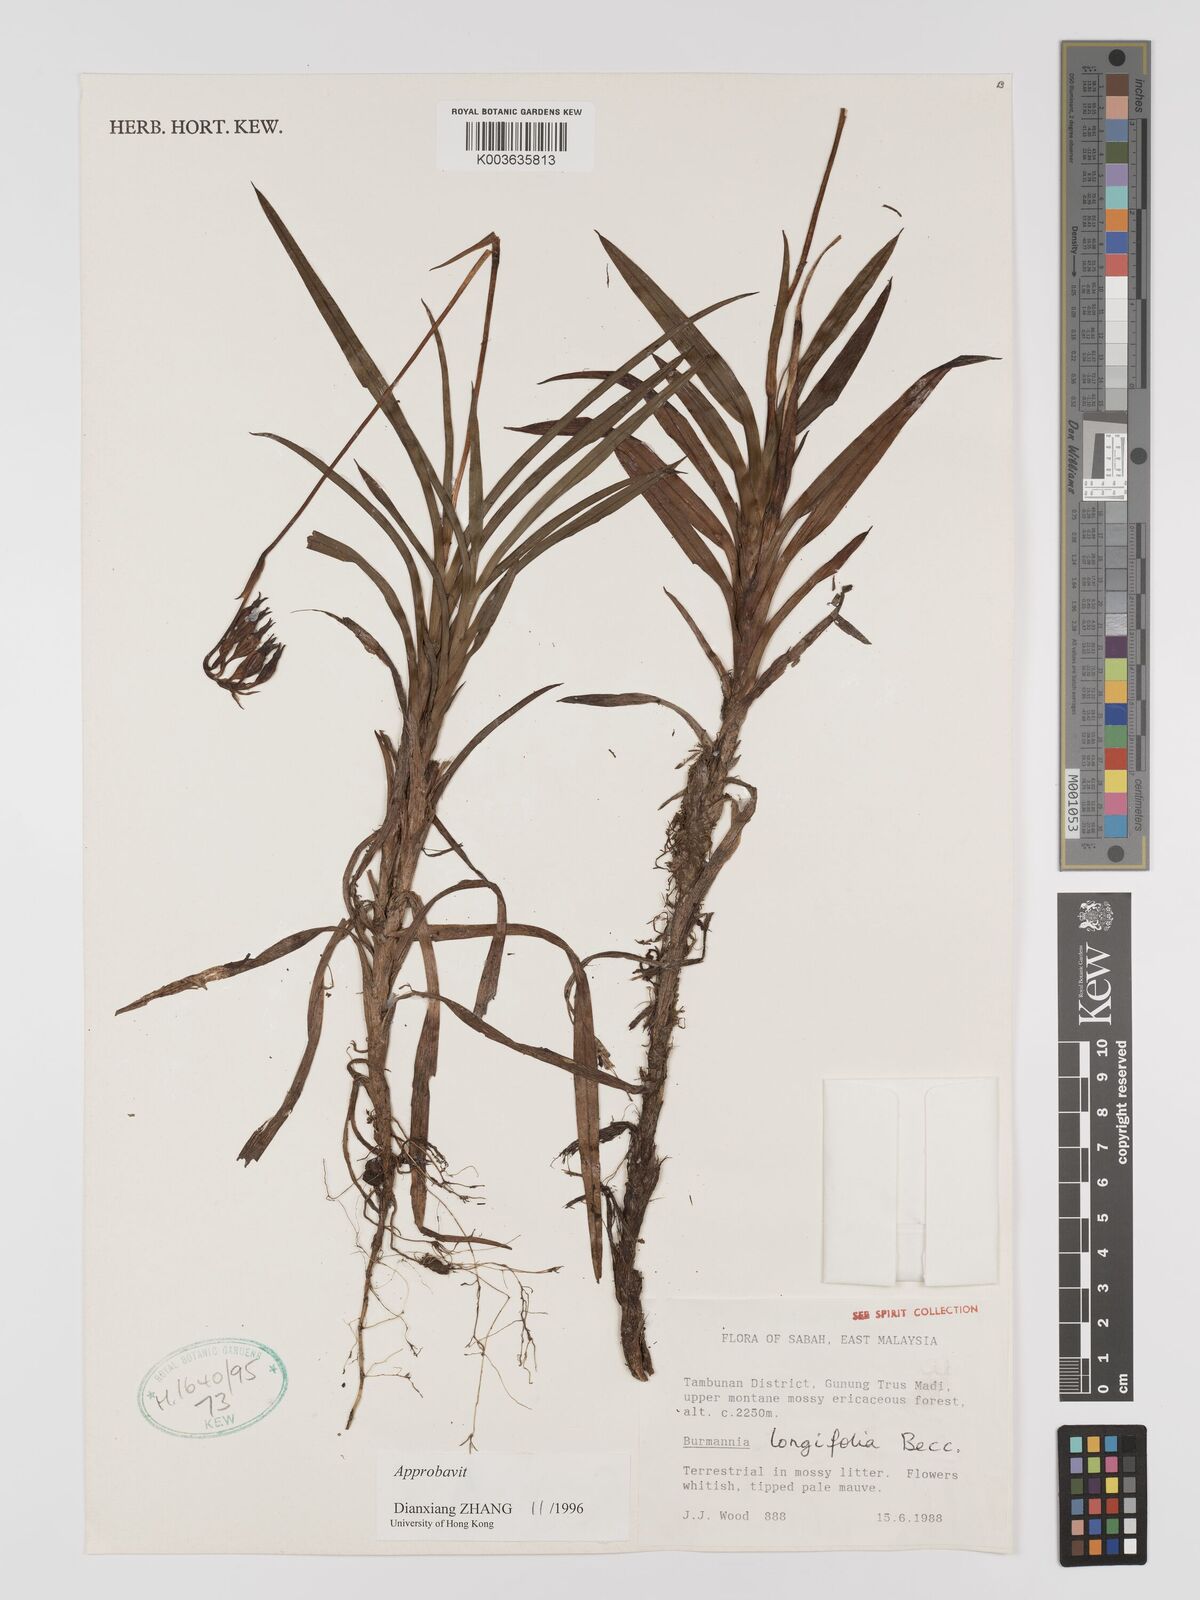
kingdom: Plantae
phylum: Tracheophyta
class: Liliopsida
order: Dioscoreales
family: Burmanniaceae
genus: Burmannia
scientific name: Burmannia longifolia
